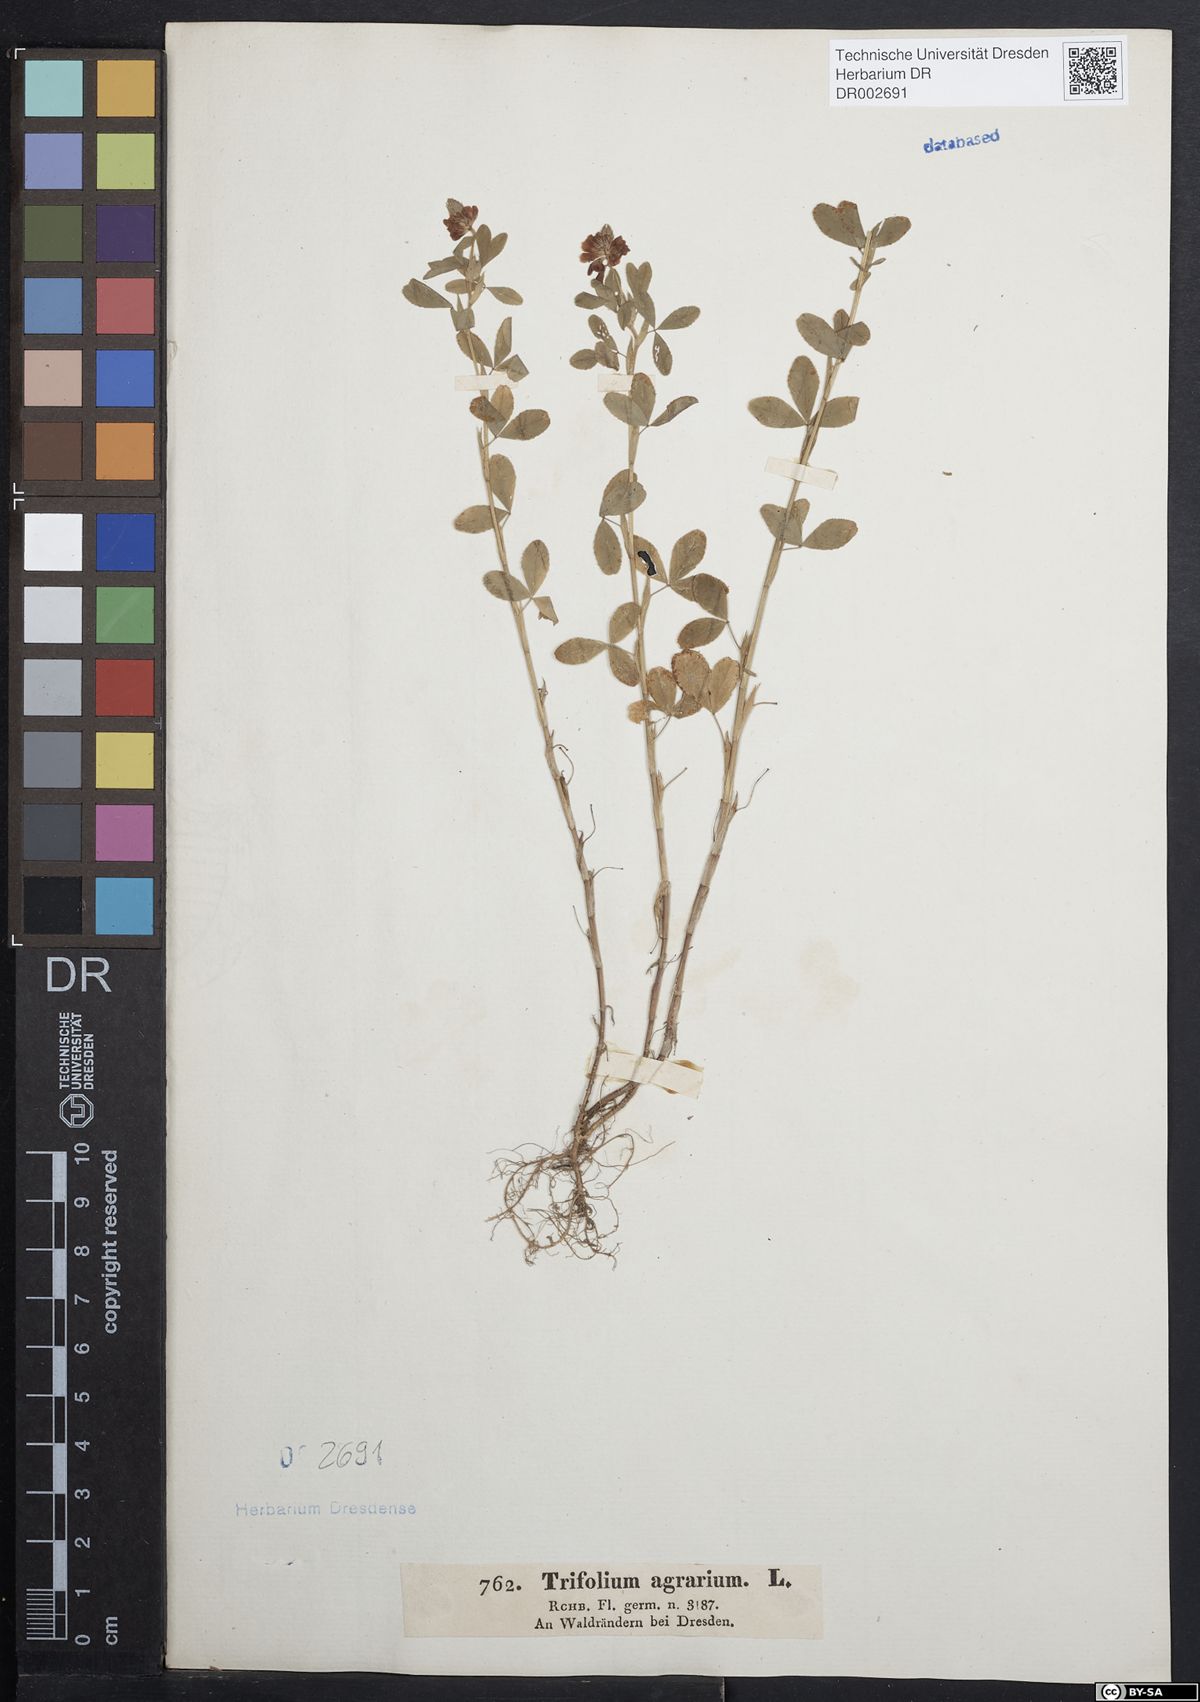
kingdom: Plantae
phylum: Tracheophyta
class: Magnoliopsida
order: Fabales
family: Fabaceae
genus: Trifolium
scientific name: Trifolium aureum
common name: Golden clover
